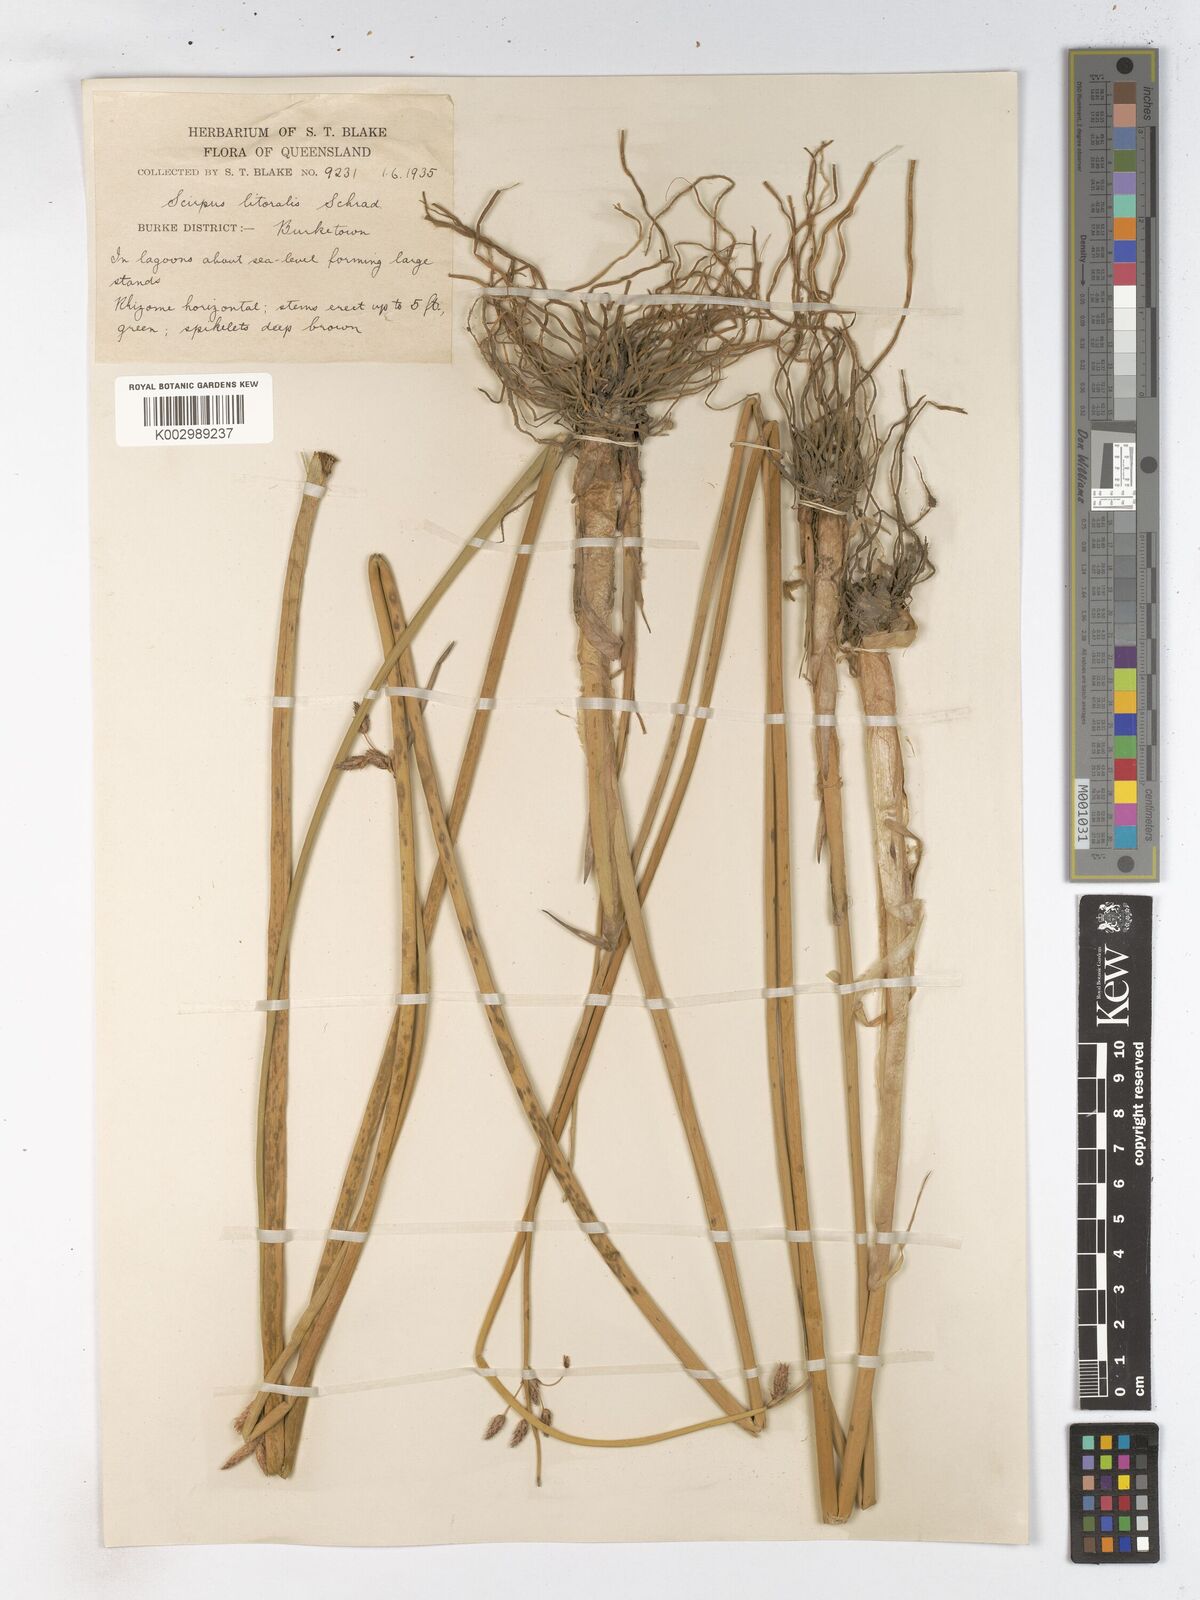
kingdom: Plantae
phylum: Tracheophyta
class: Liliopsida
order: Poales
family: Cyperaceae
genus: Schoenoplectus
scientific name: Schoenoplectus litoralis
